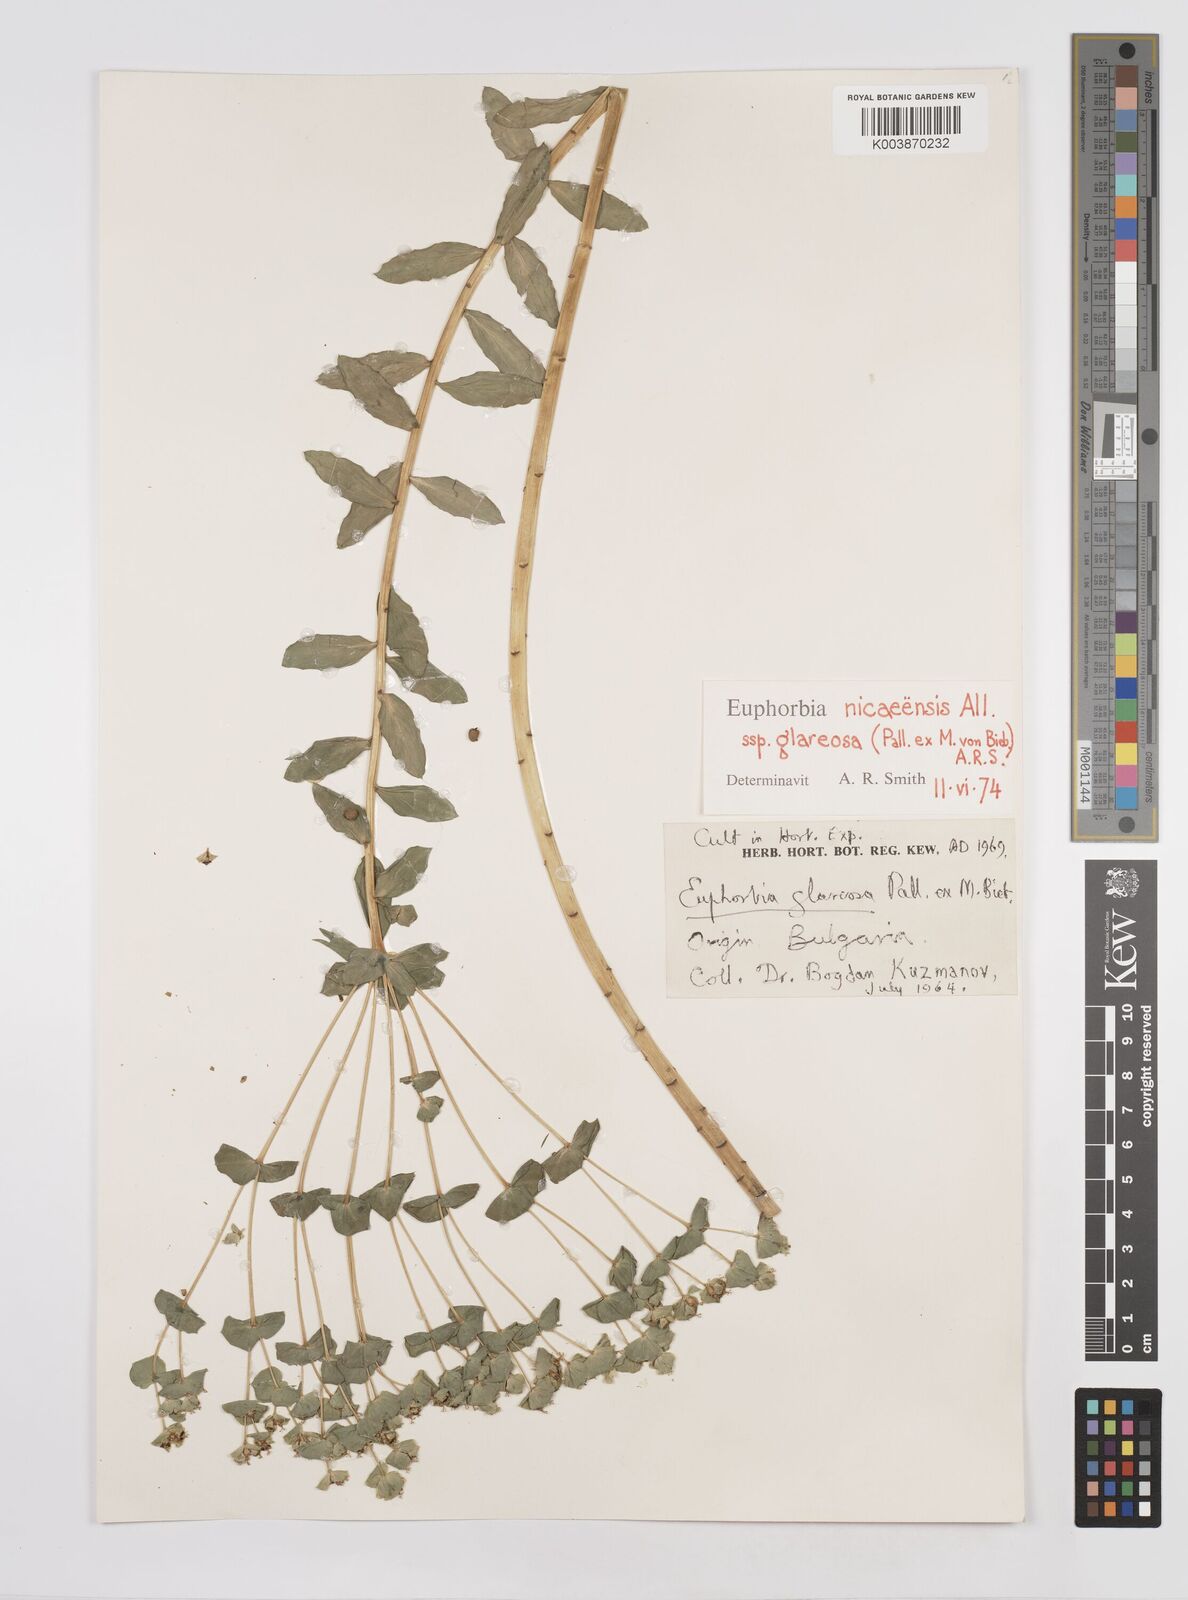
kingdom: Plantae
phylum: Tracheophyta
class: Magnoliopsida
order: Malpighiales
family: Euphorbiaceae
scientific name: Euphorbiaceae
